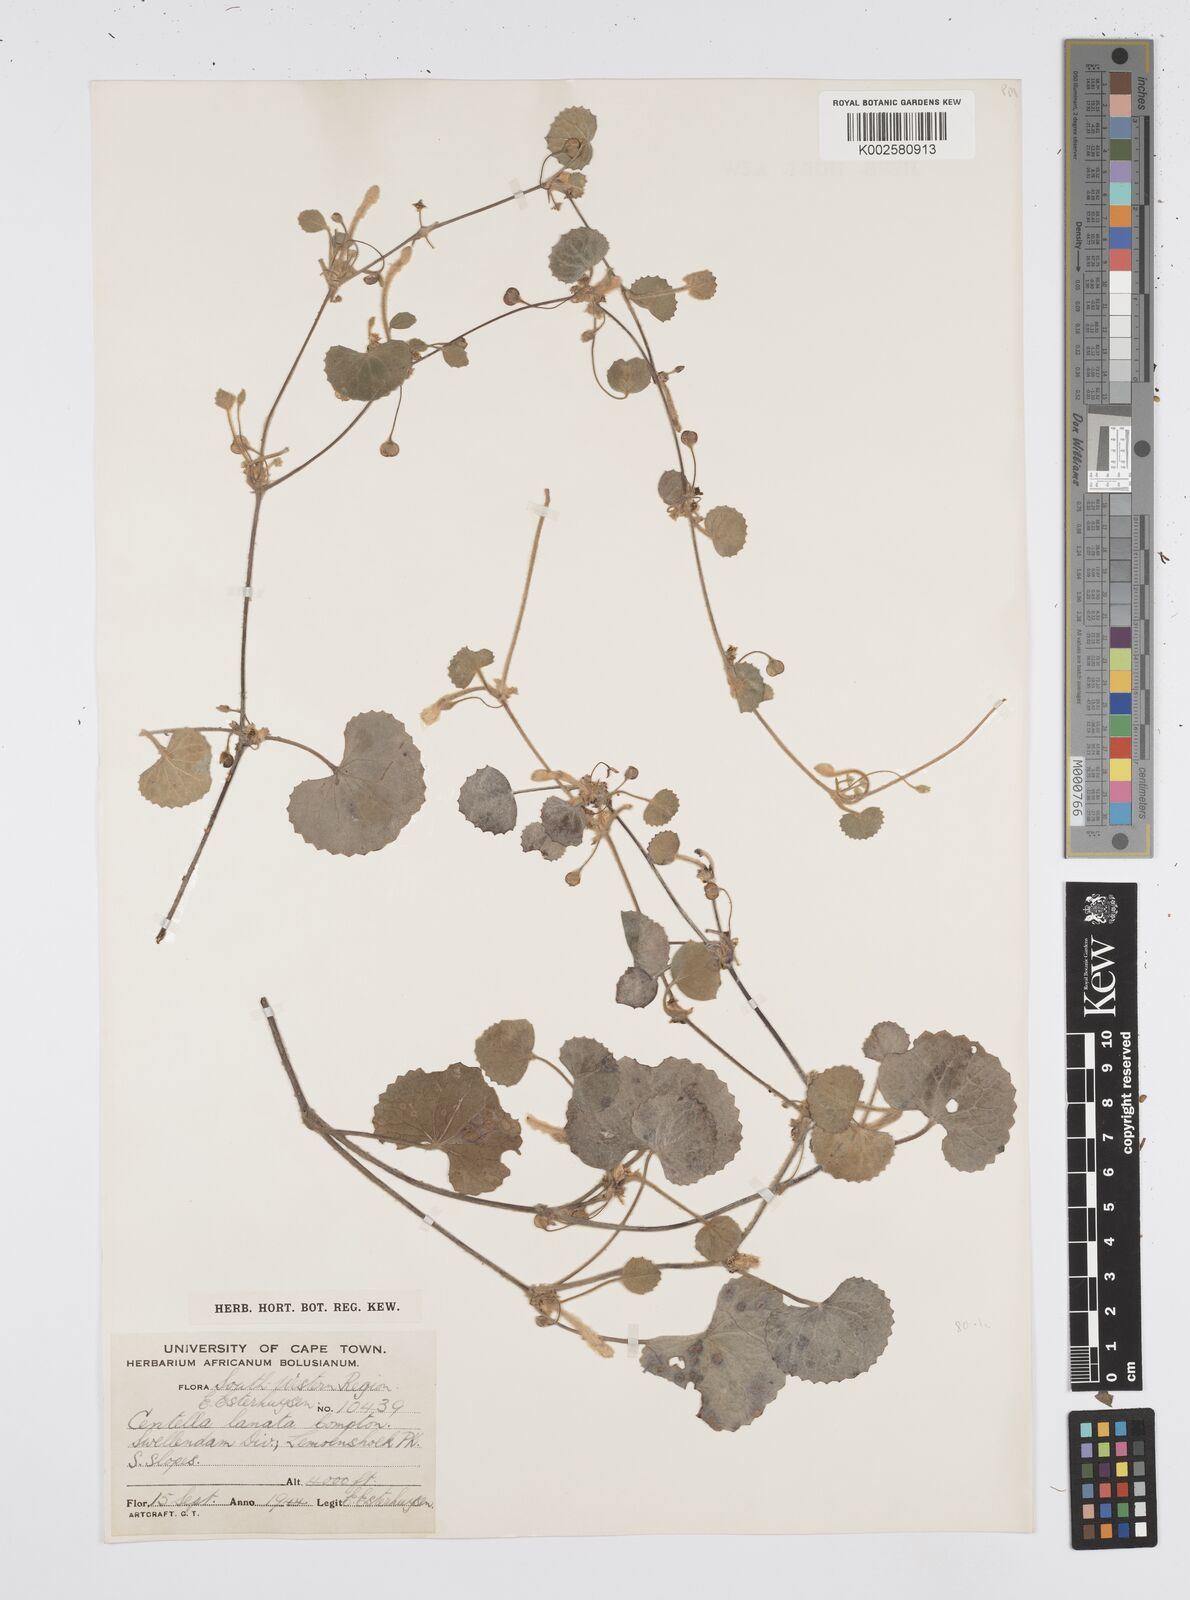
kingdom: Plantae
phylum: Tracheophyta
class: Magnoliopsida
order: Apiales
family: Apiaceae
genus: Centella
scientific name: Centella lanata
